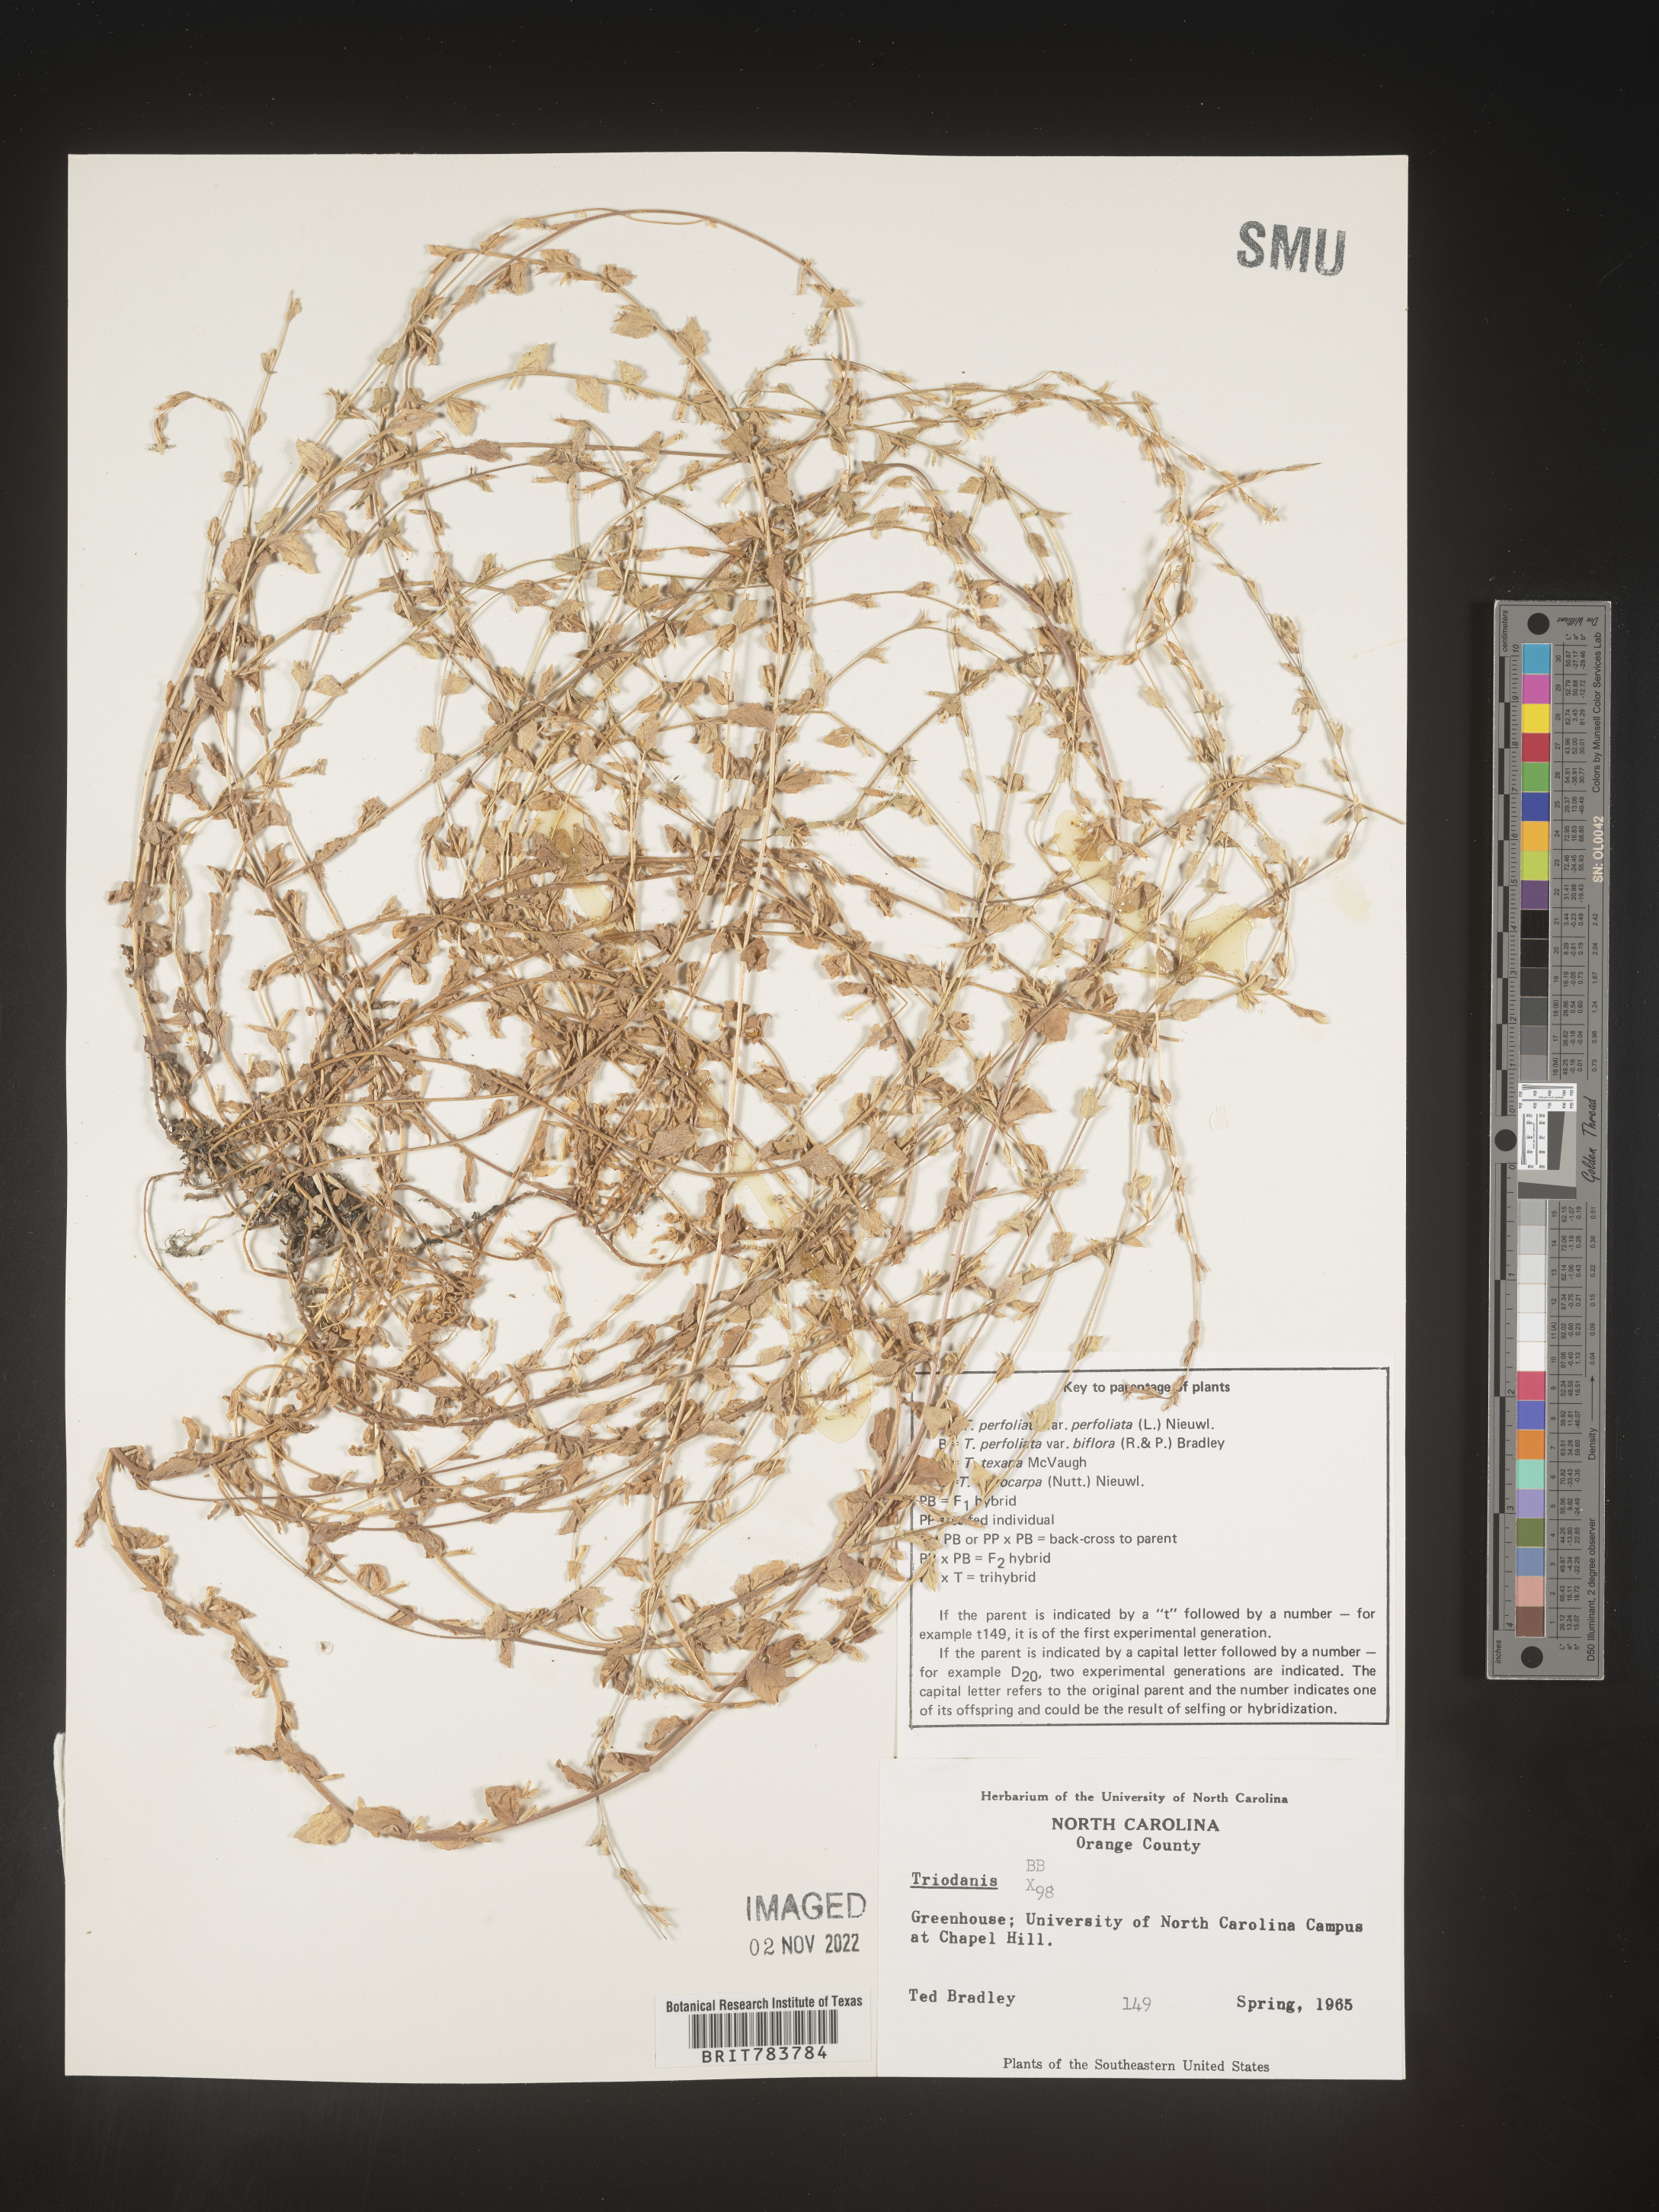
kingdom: Plantae
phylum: Tracheophyta
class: Magnoliopsida
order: Asterales
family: Campanulaceae
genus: Triodanis
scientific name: Triodanis
